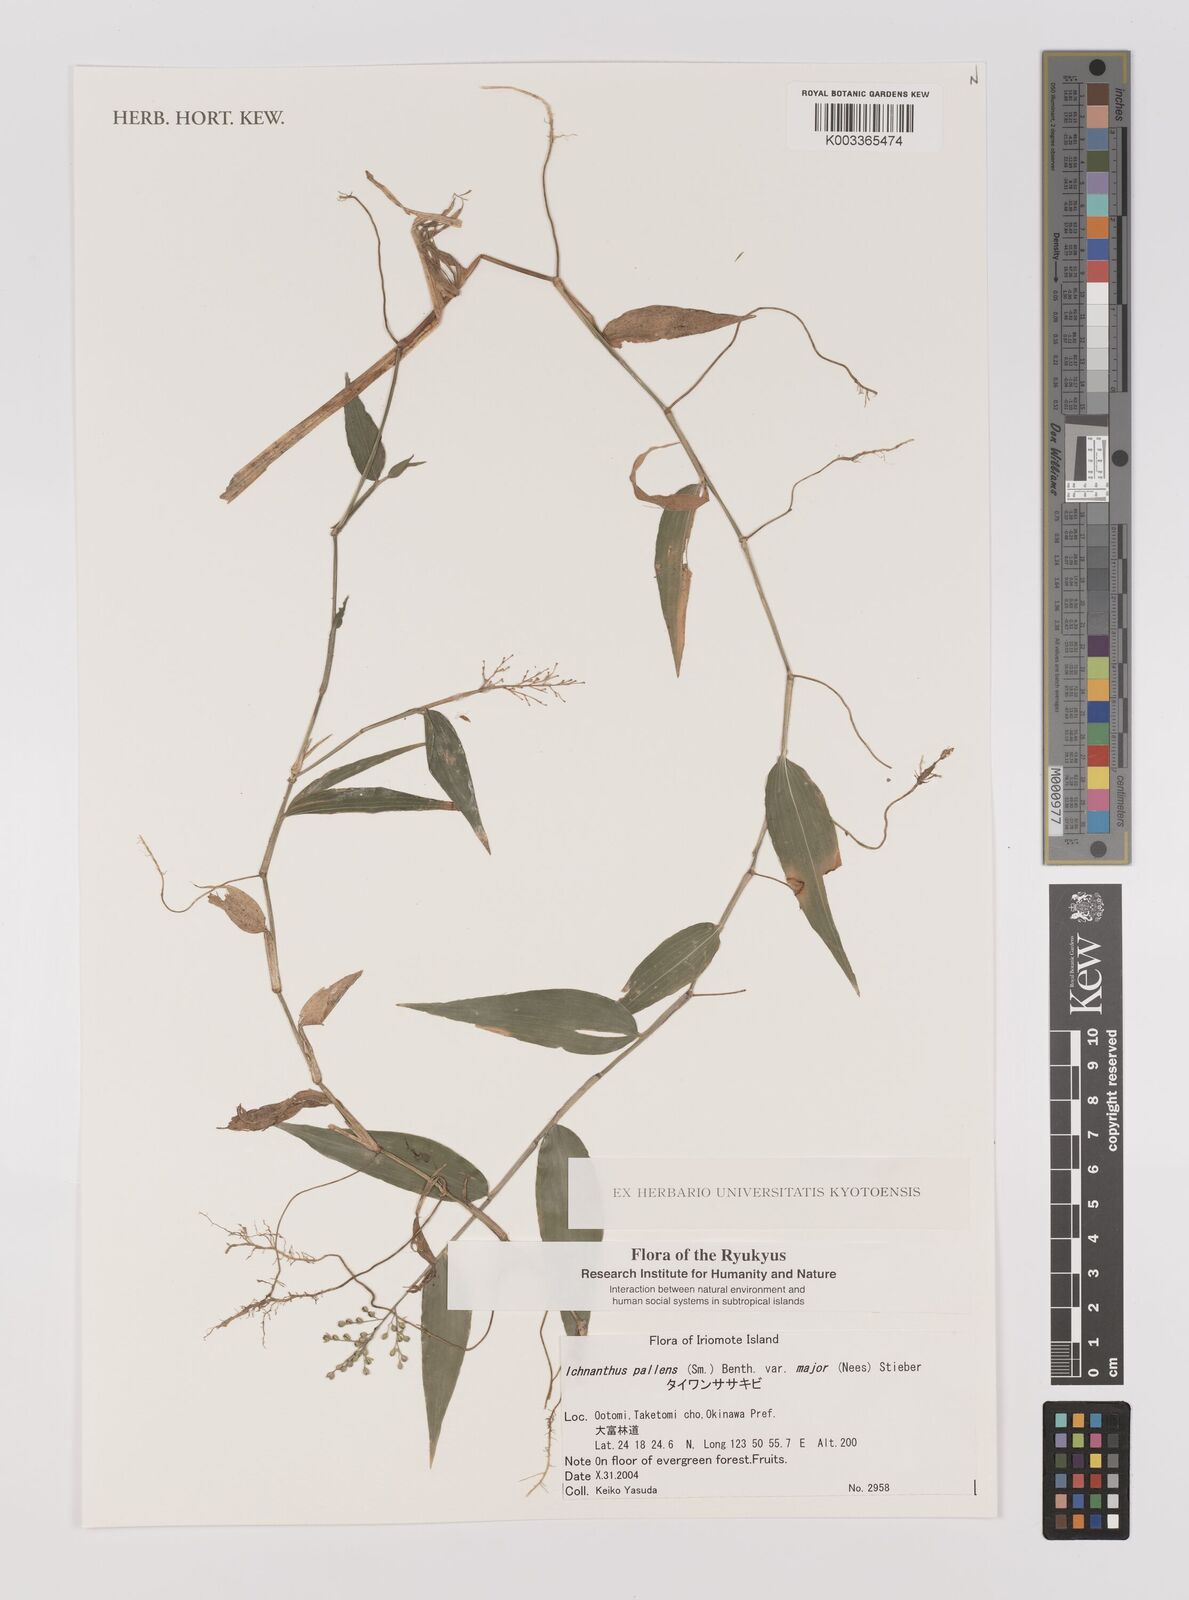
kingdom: Plantae
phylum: Tracheophyta
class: Liliopsida
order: Poales
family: Poaceae
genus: Ichnanthus
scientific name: Ichnanthus pallens
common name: Water grass
